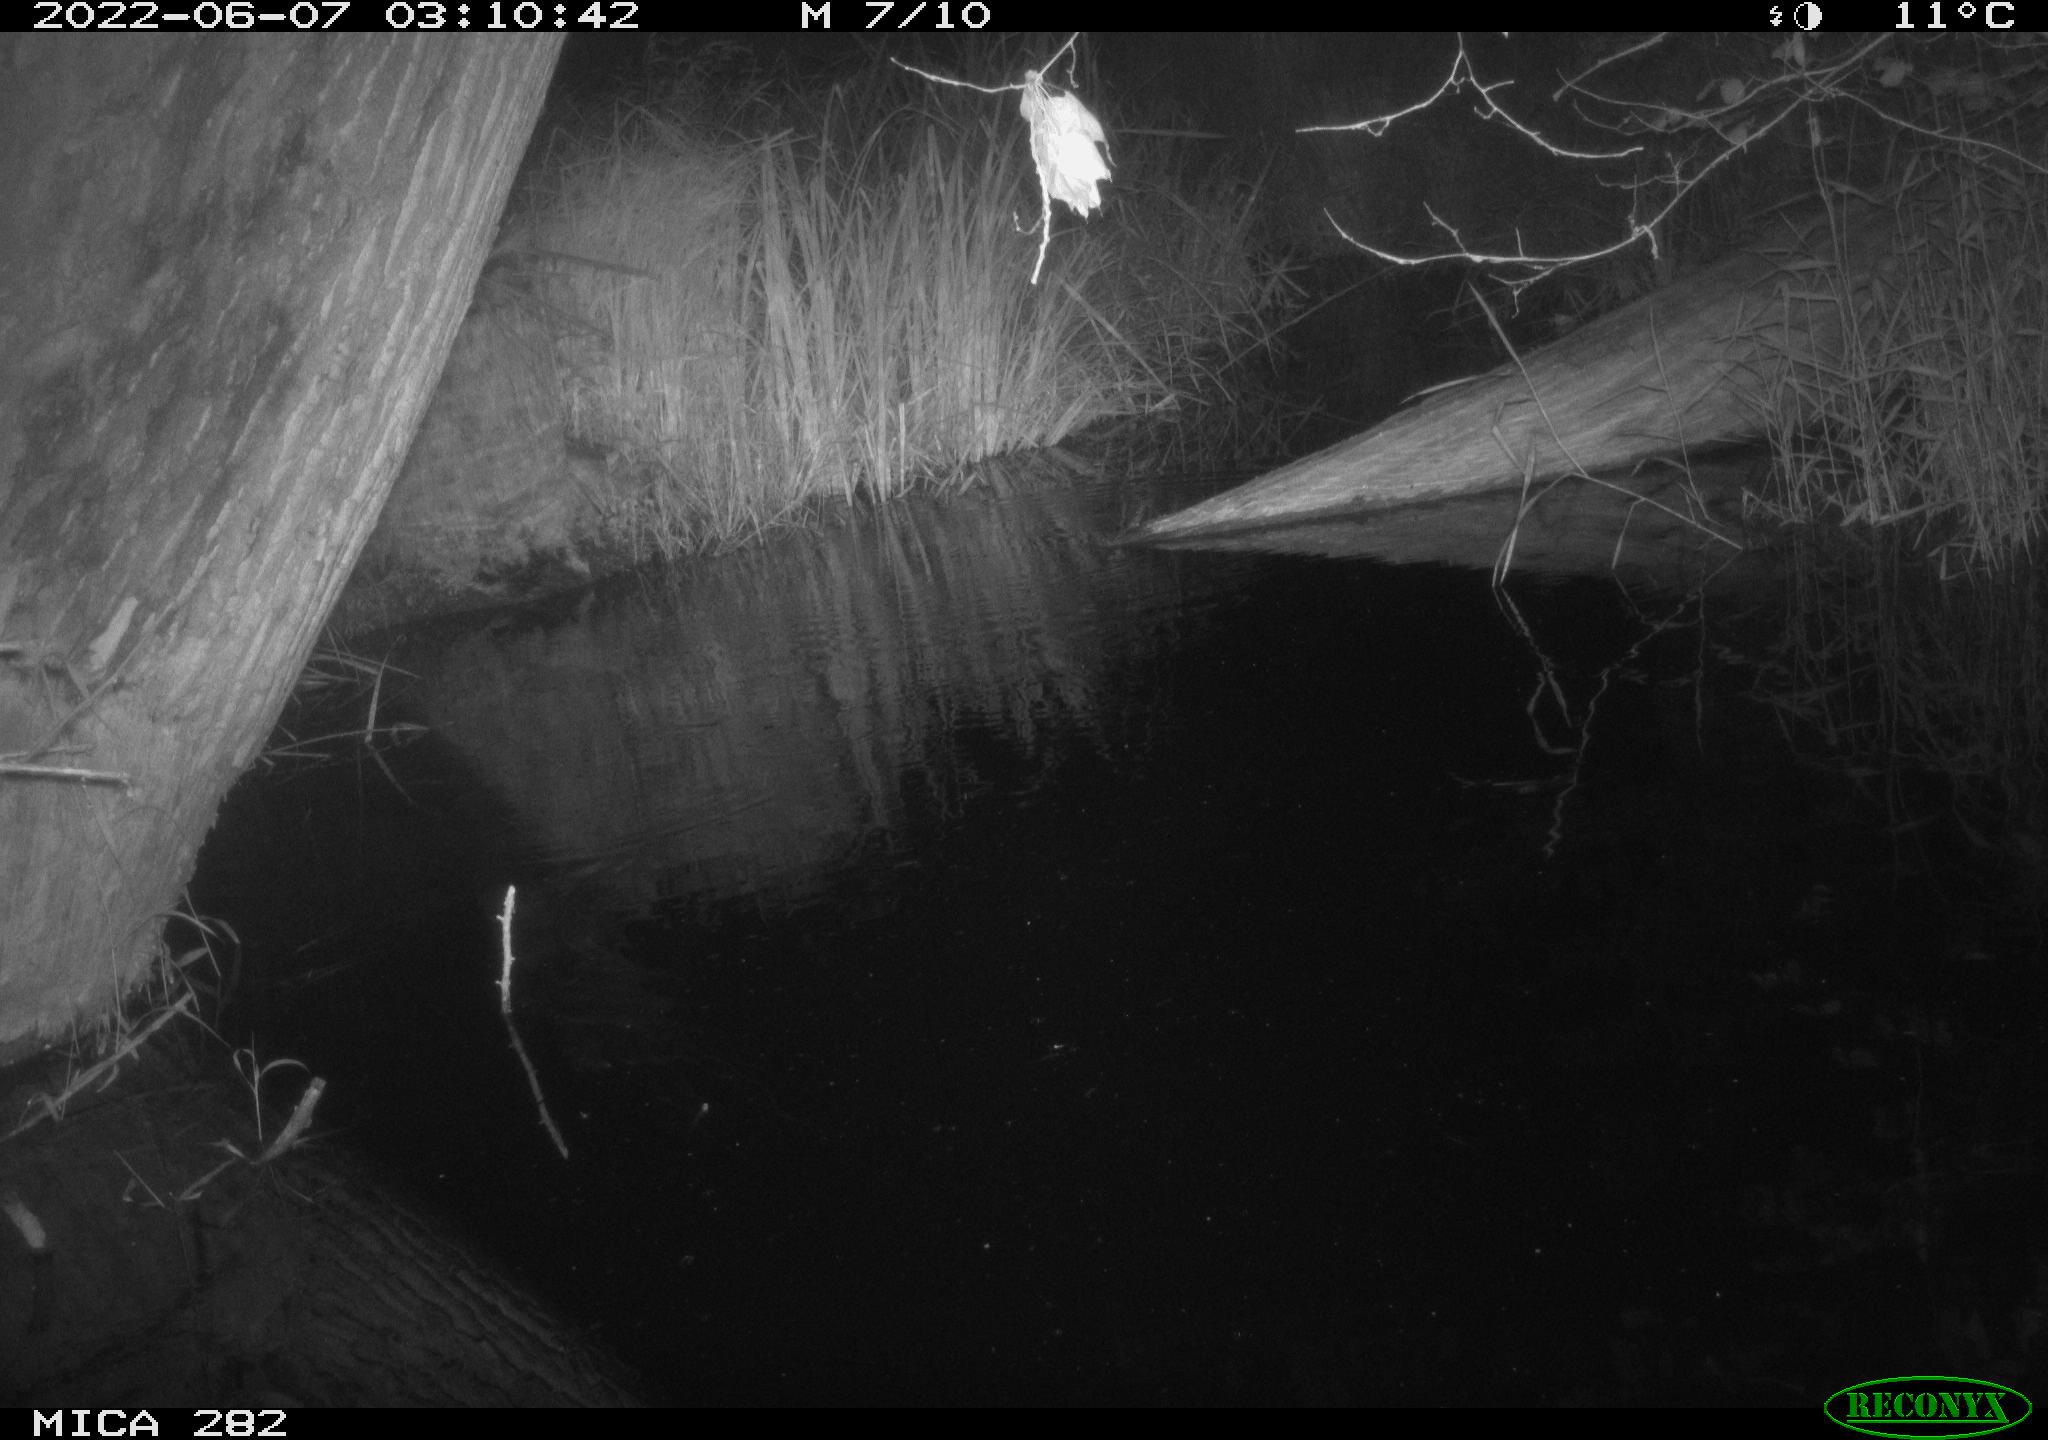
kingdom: Animalia
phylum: Chordata
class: Mammalia
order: Carnivora
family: Canidae
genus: Vulpes
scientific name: Vulpes vulpes
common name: Red fox
